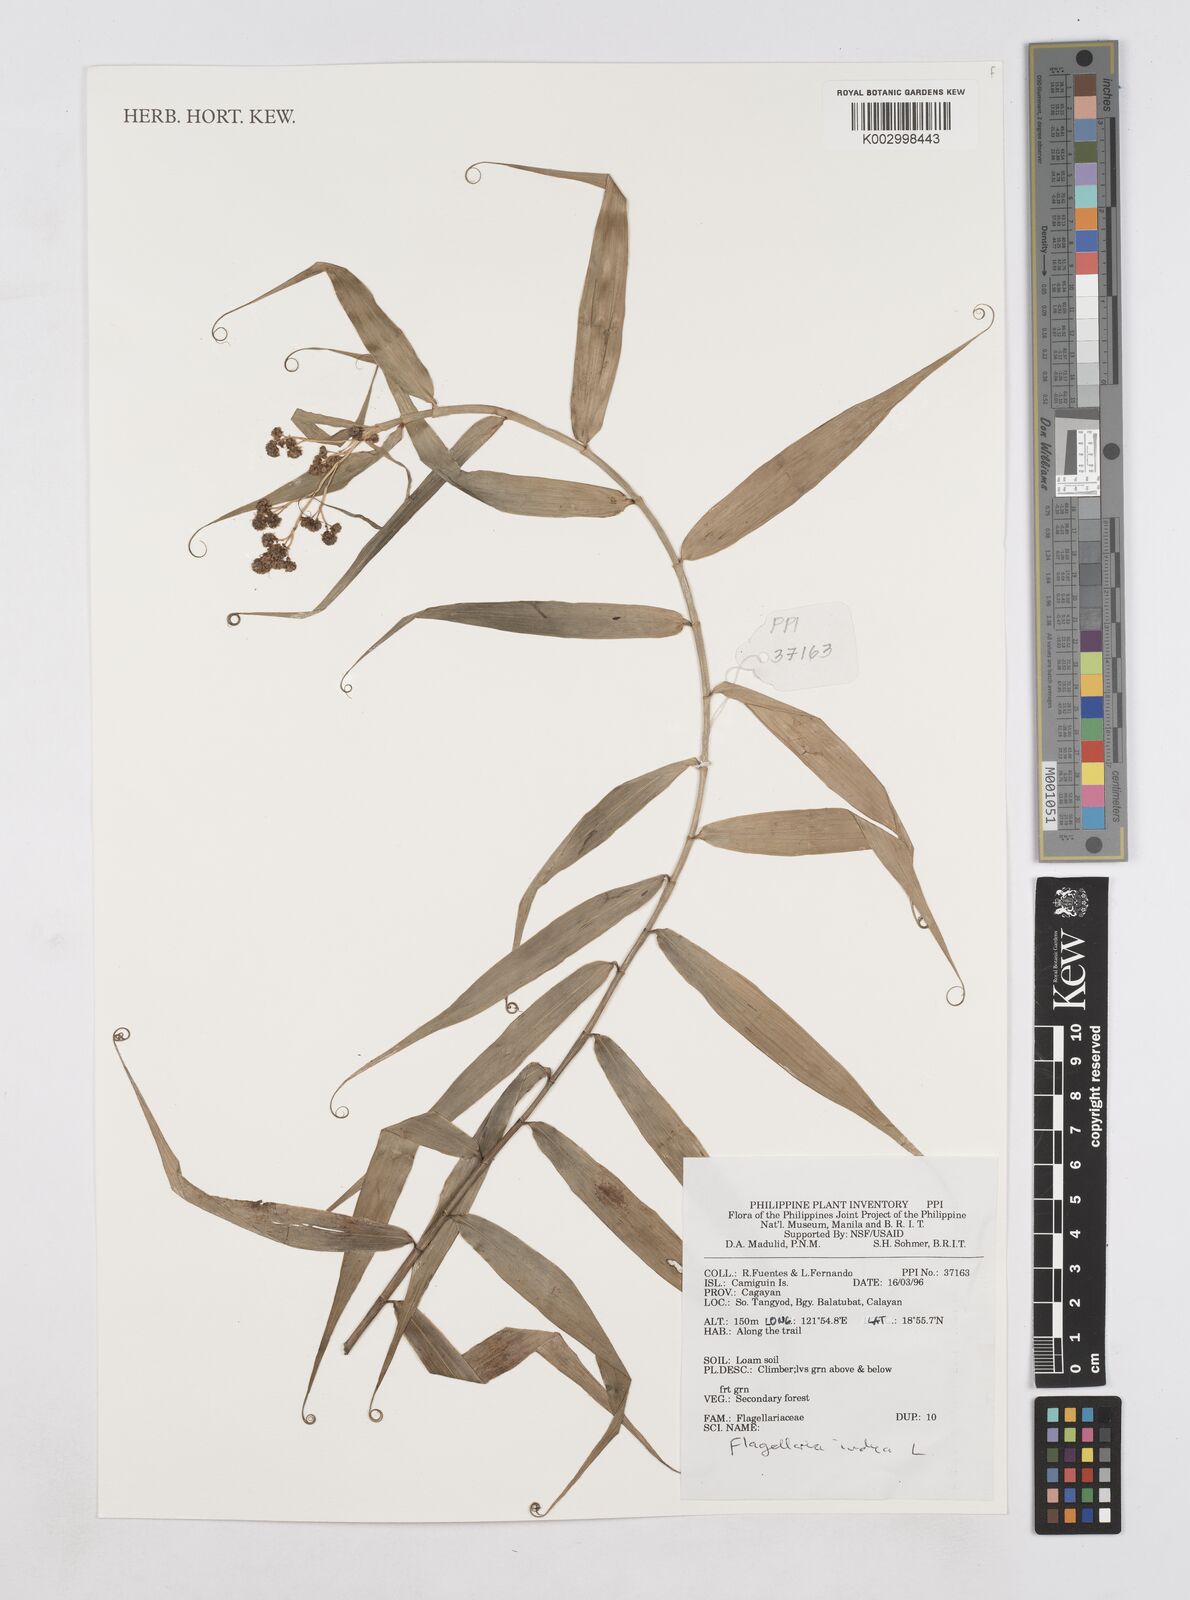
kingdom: Plantae
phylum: Tracheophyta
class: Liliopsida
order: Poales
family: Flagellariaceae
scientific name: Flagellariaceae
